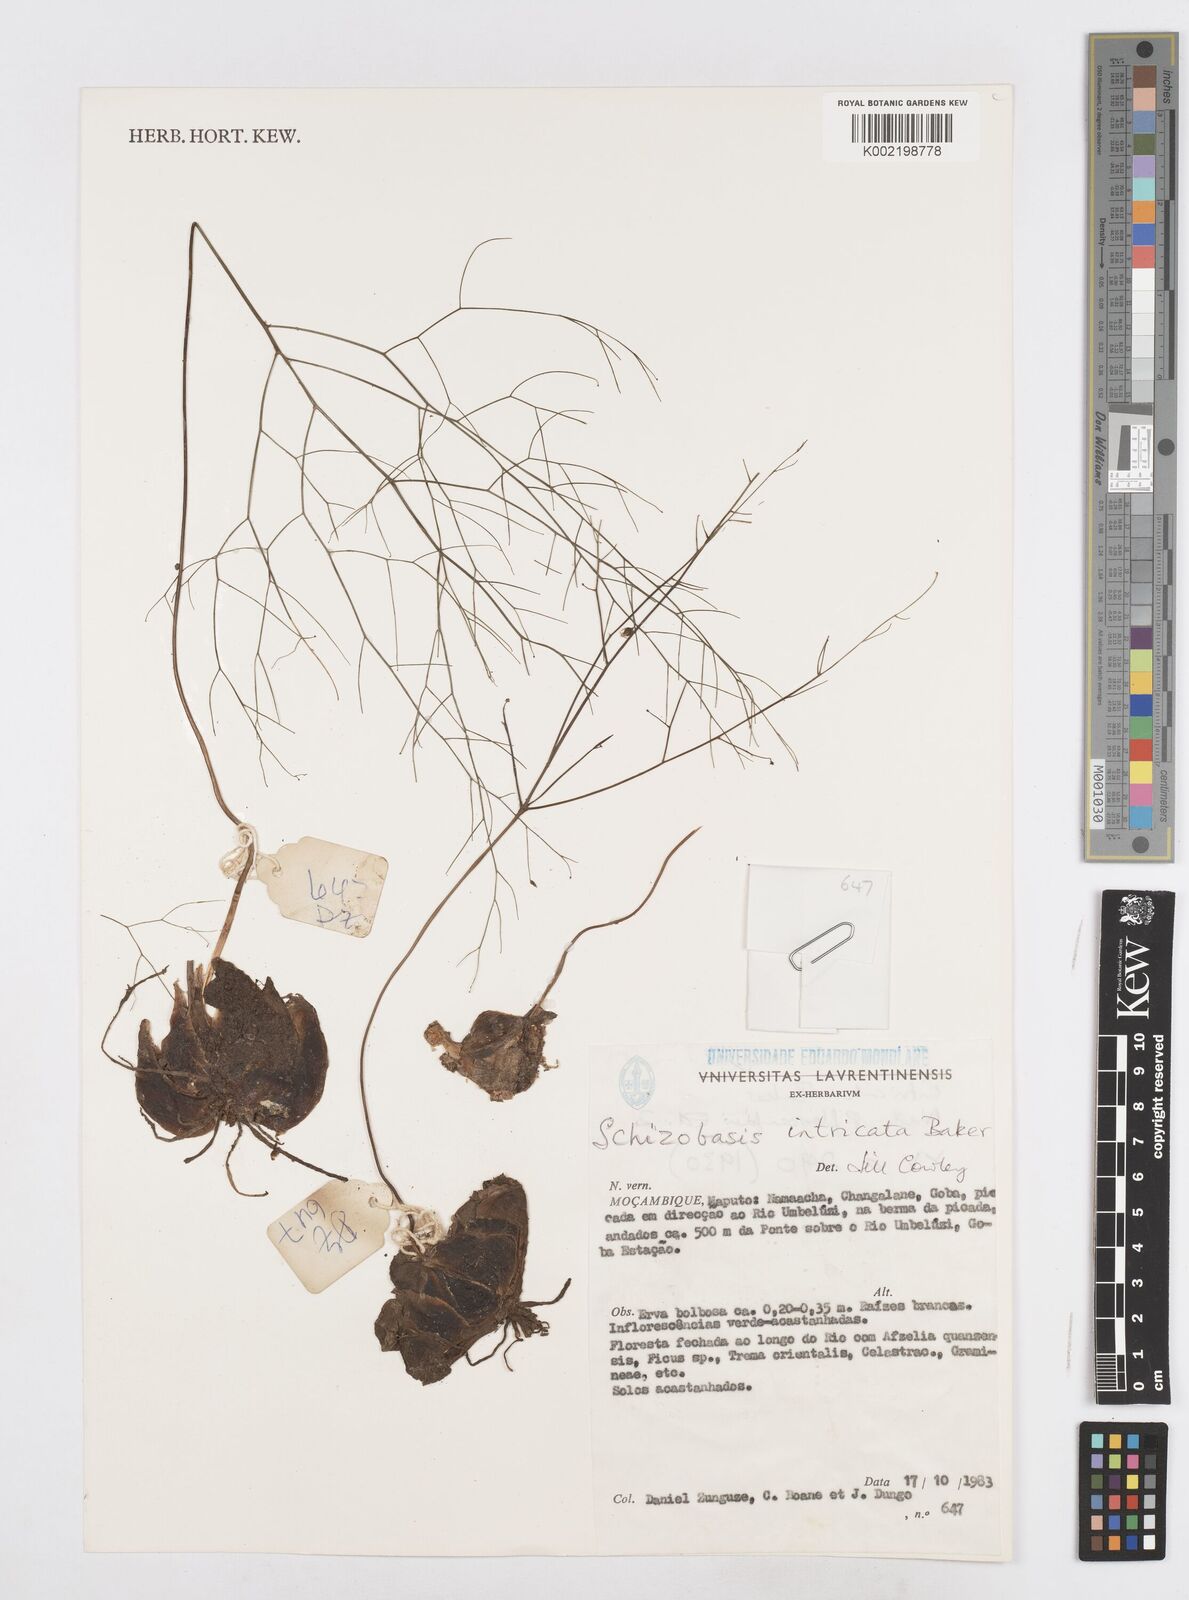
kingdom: Plantae
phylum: Tracheophyta
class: Liliopsida
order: Asparagales
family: Asparagaceae
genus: Drimia
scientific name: Drimia intricata
